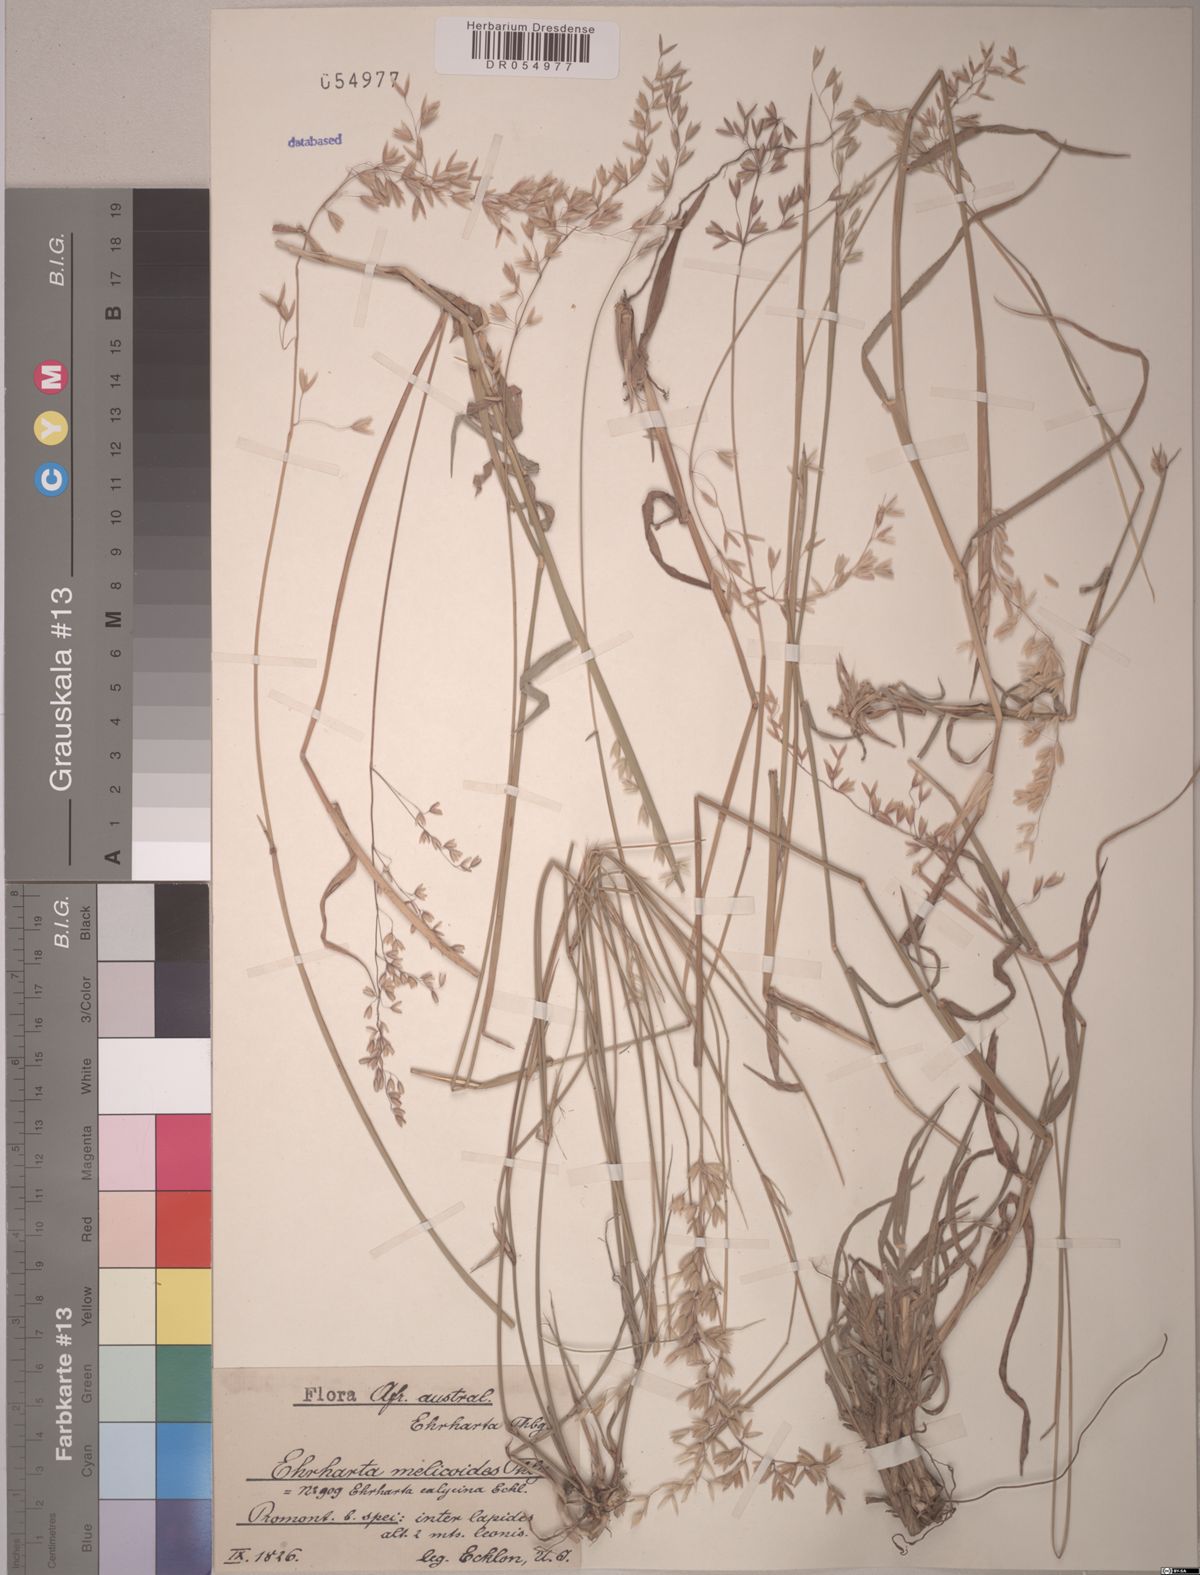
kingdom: Plantae
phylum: Tracheophyta
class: Liliopsida
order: Poales
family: Poaceae
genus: Ehrharta
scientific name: Ehrharta melicoides
